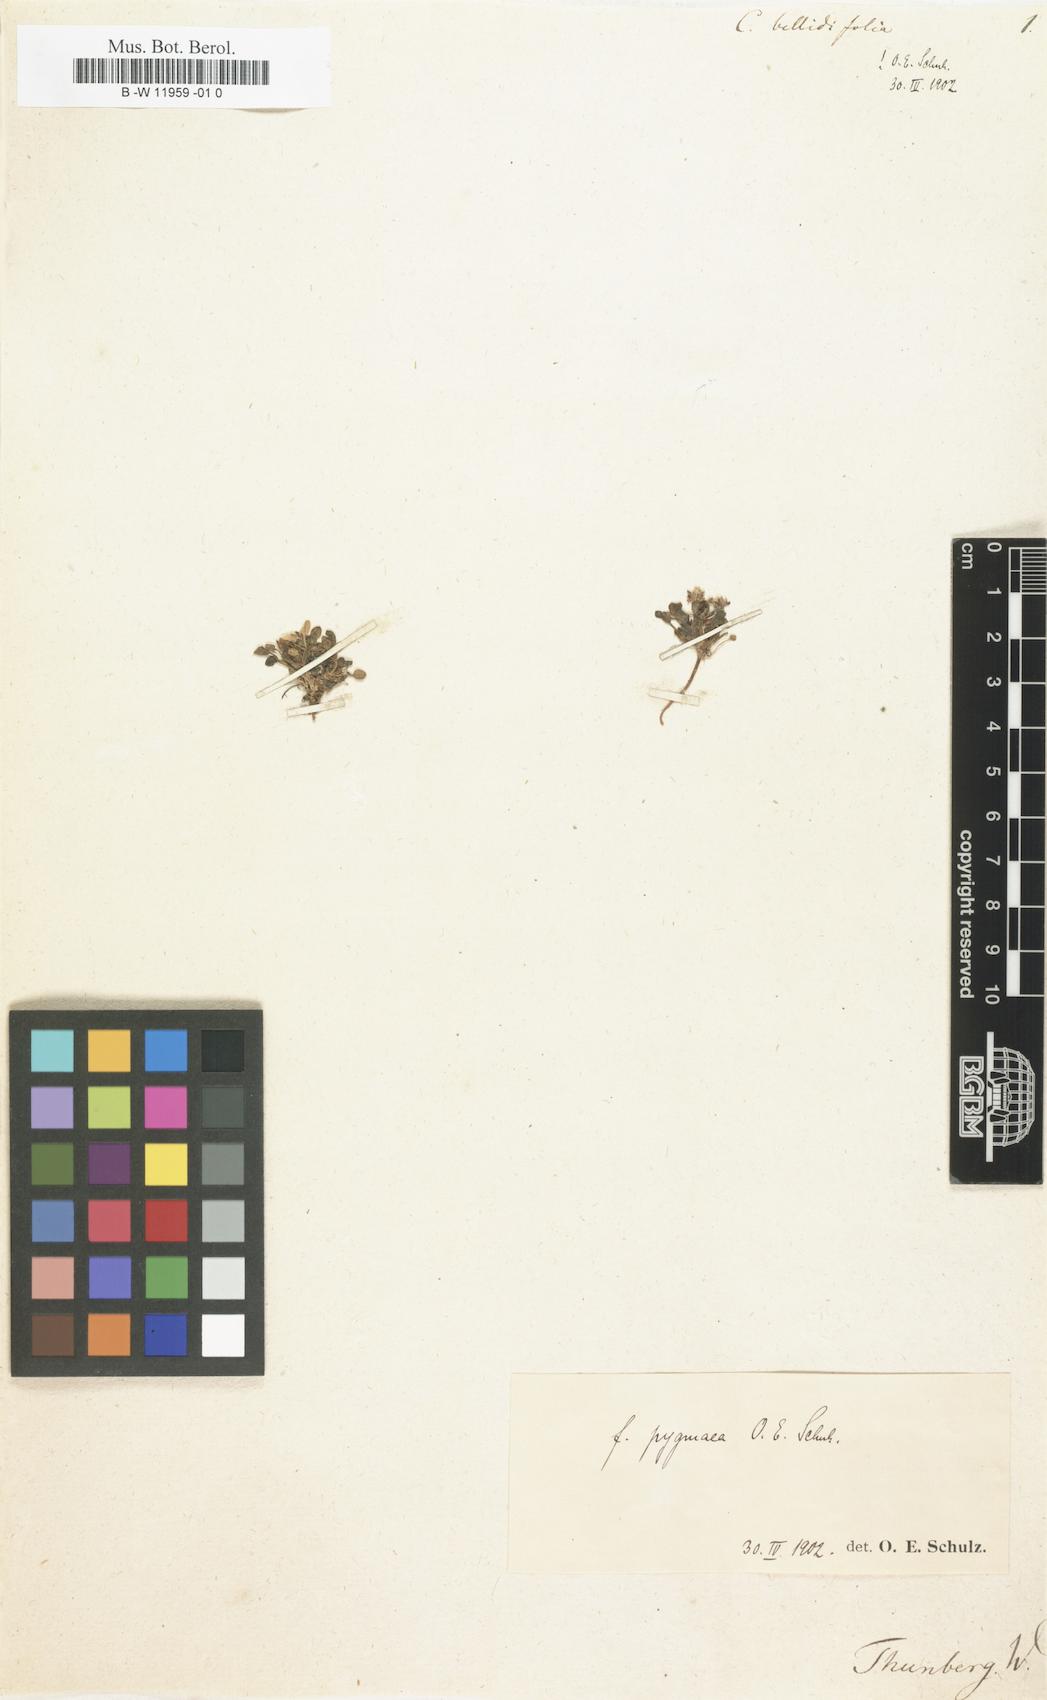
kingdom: Plantae
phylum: Tracheophyta
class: Magnoliopsida
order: Brassicales
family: Brassicaceae
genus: Cardamine
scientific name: Cardamine bellidifolia
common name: Alpine bittercress
